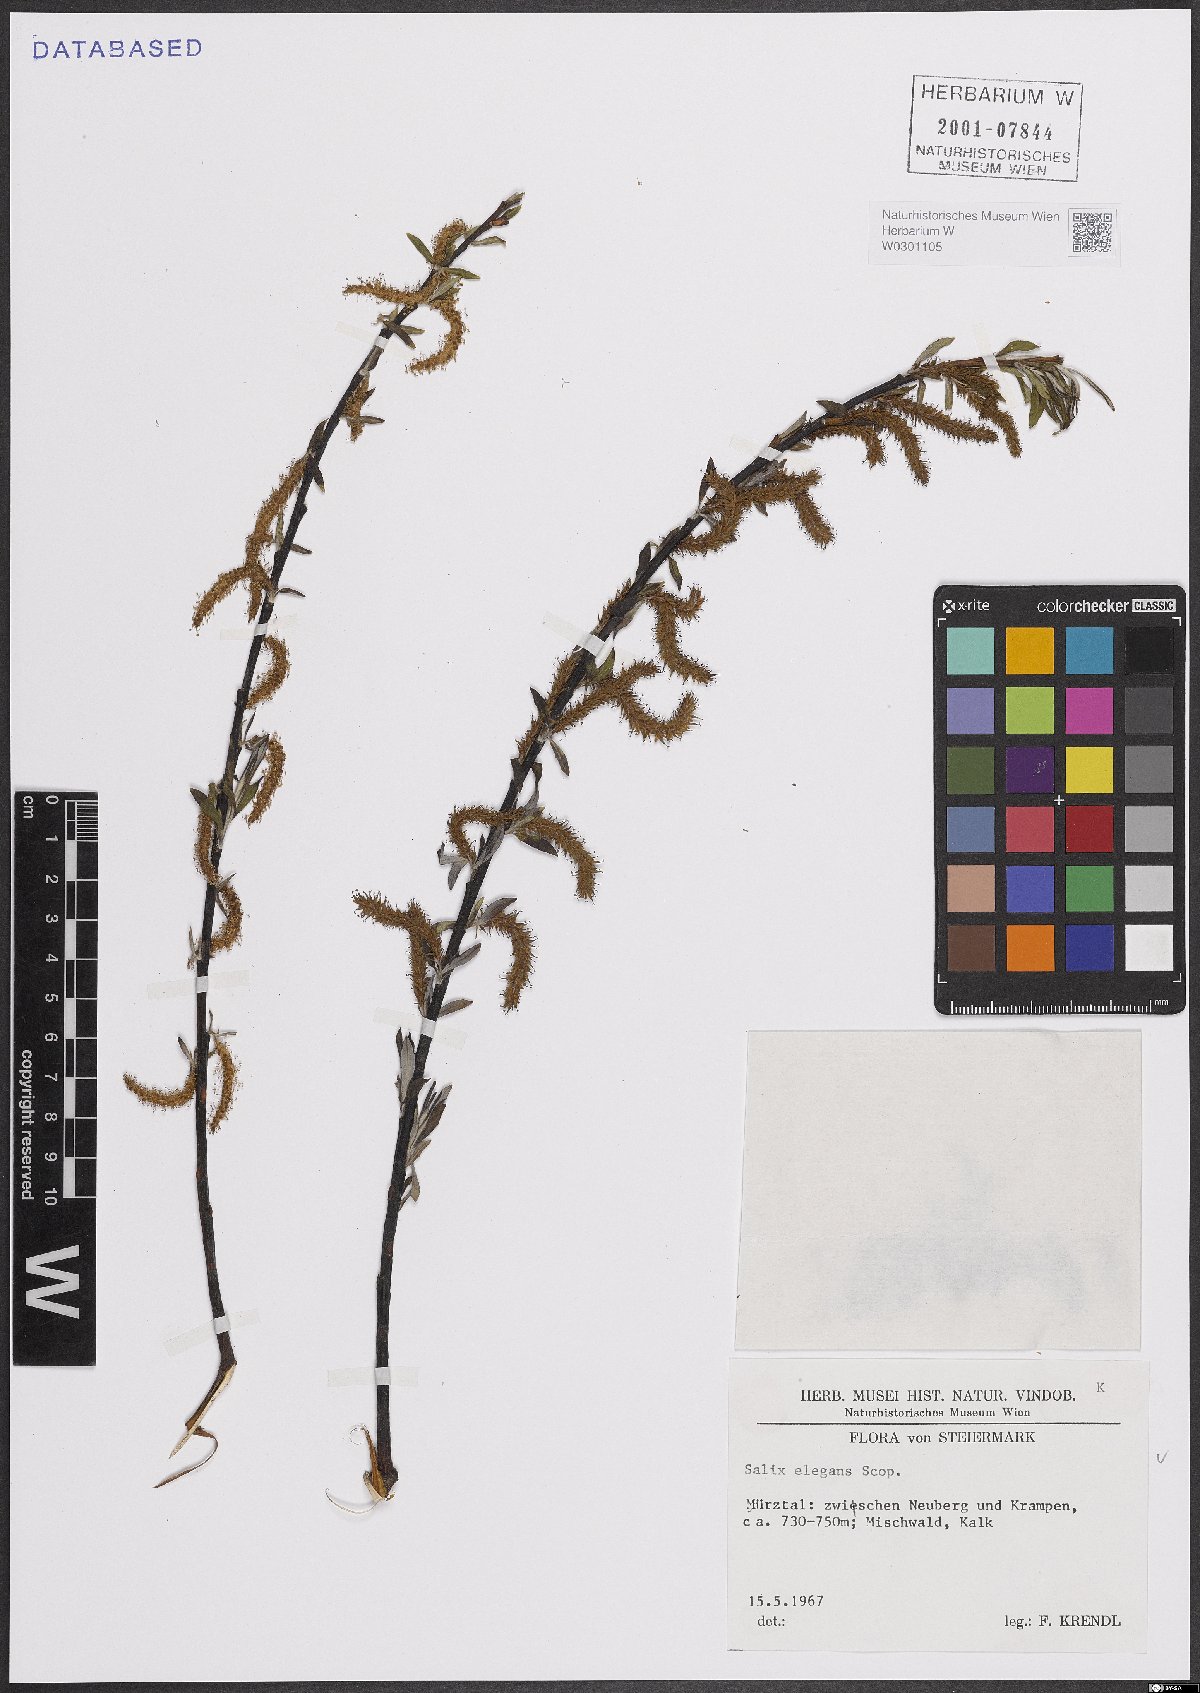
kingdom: Plantae
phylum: Tracheophyta
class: Magnoliopsida
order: Malpighiales
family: Salicaceae
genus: Salix
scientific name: Salix eleagnos
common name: Elaeagnus willow
